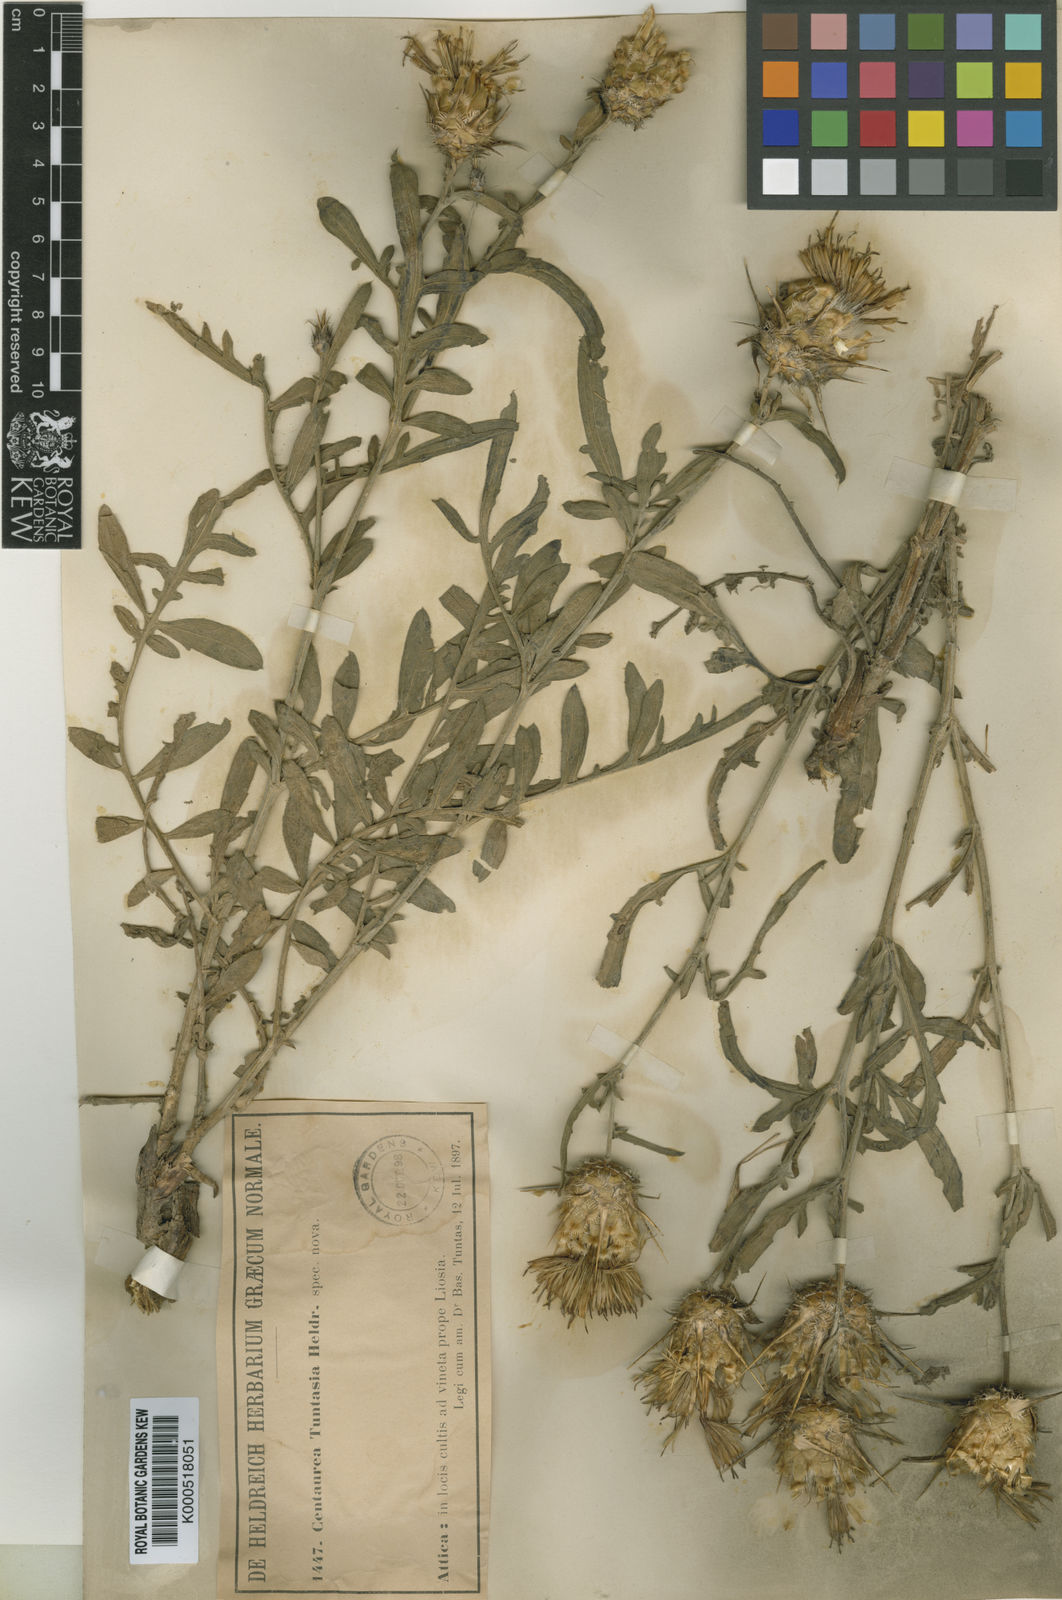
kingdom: Plantae
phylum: Tracheophyta
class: Magnoliopsida
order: Asterales
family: Asteraceae
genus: Centaurea
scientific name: Centaurea
